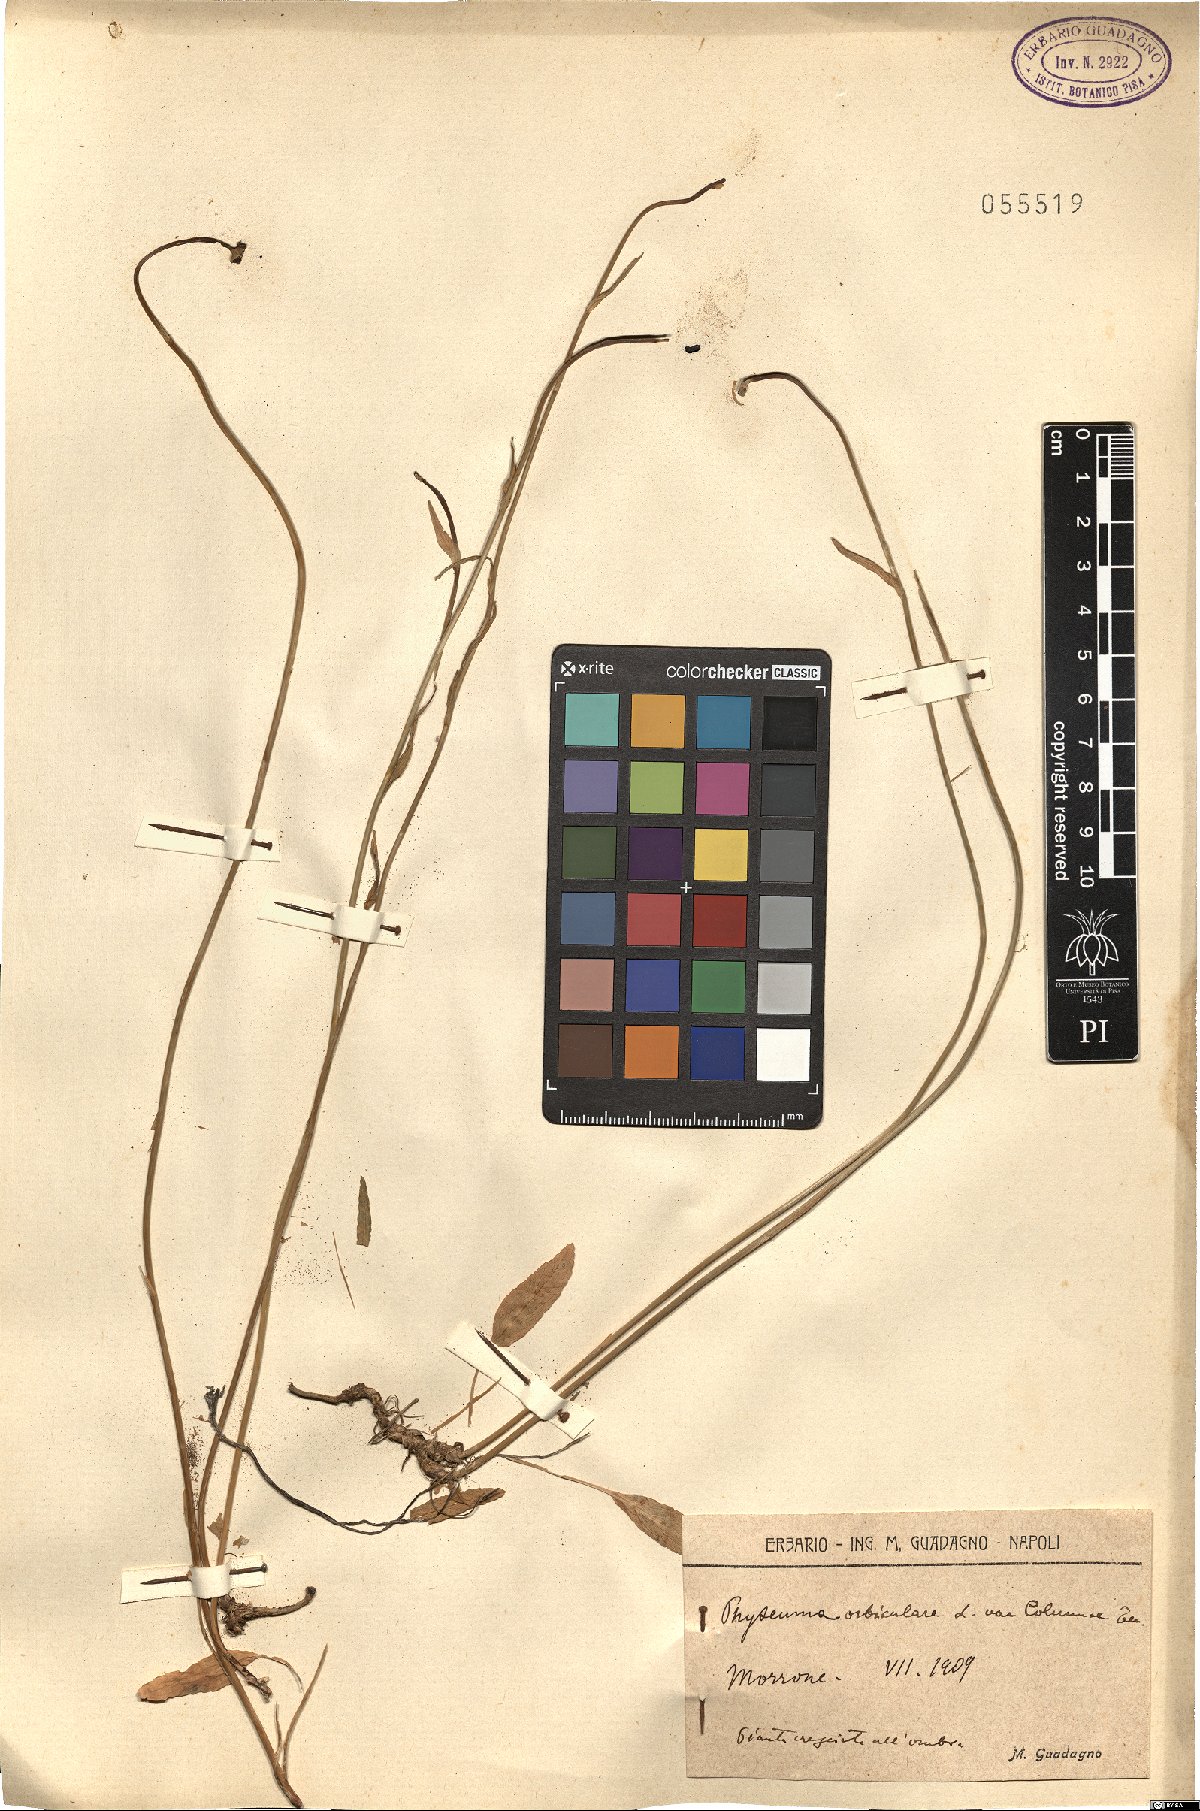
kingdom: Plantae
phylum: Tracheophyta
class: Magnoliopsida
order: Asterales
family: Campanulaceae
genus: Phyteuma
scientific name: Phyteuma orbiculare
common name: Round-headed rampion
